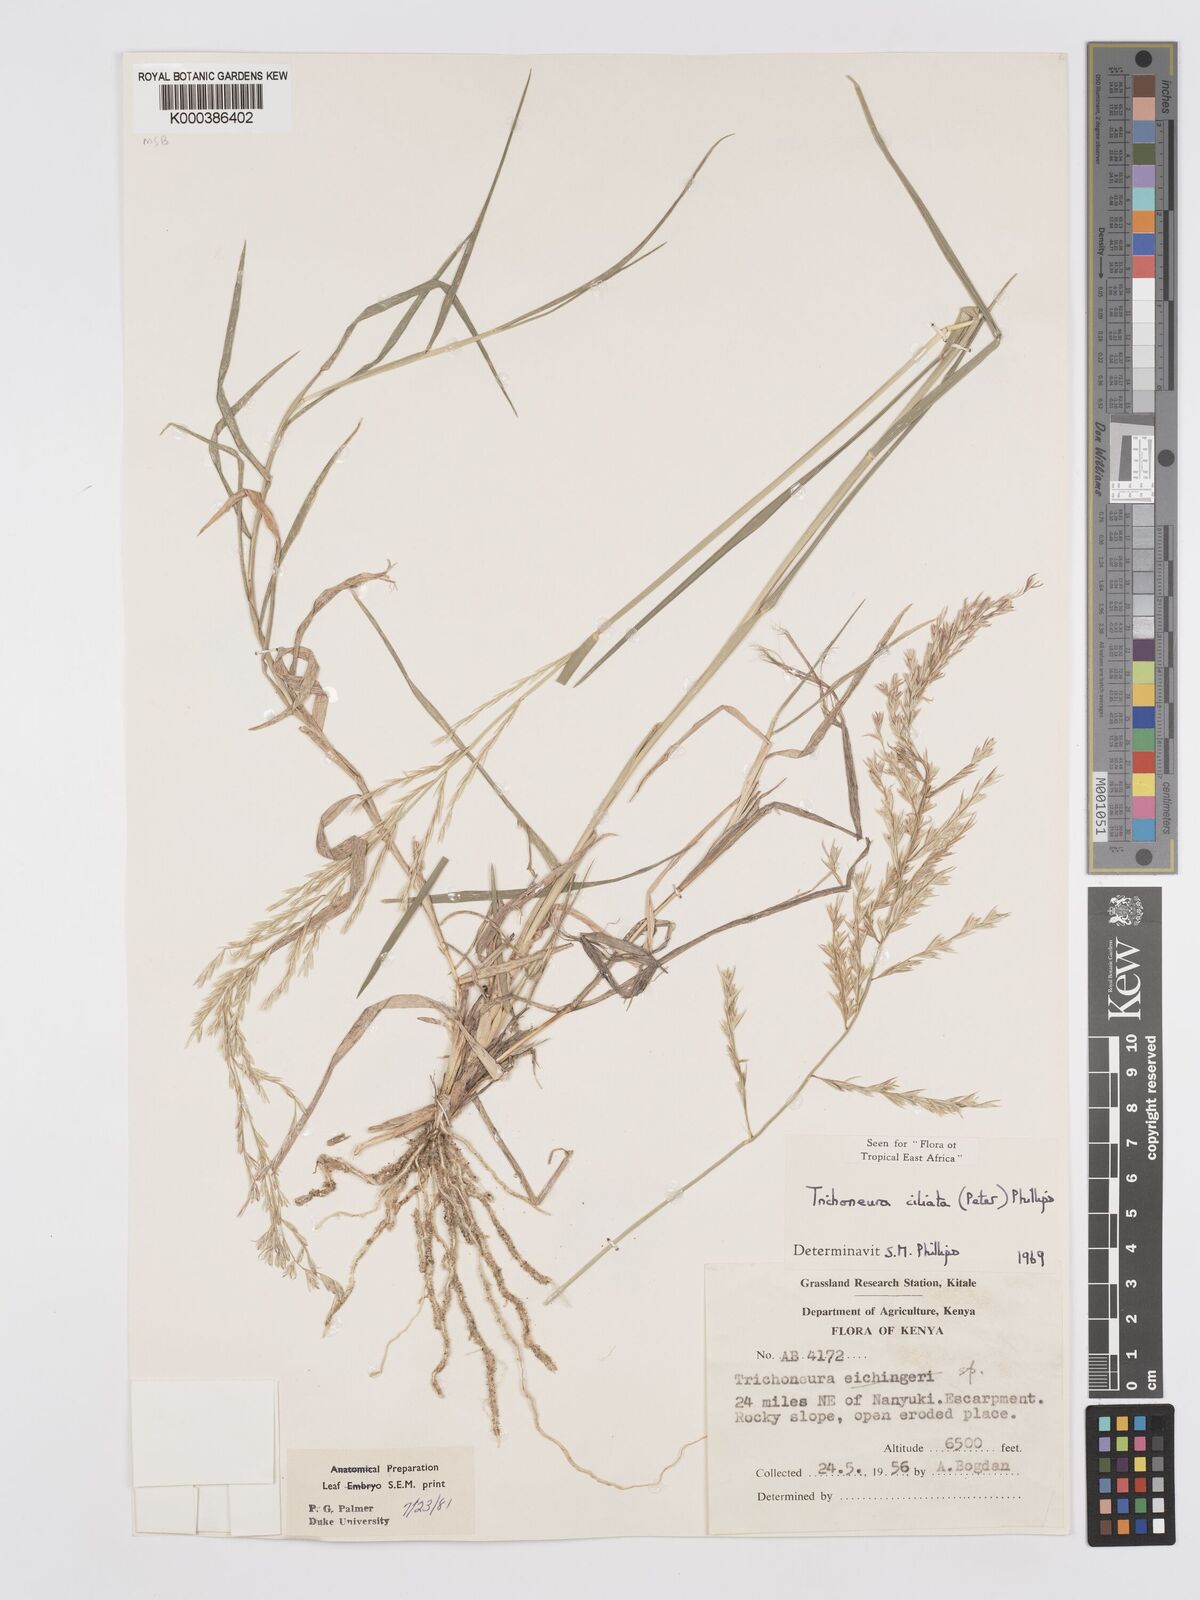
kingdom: Plantae
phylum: Tracheophyta
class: Liliopsida
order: Poales
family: Poaceae
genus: Trichoneura
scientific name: Trichoneura ciliata
